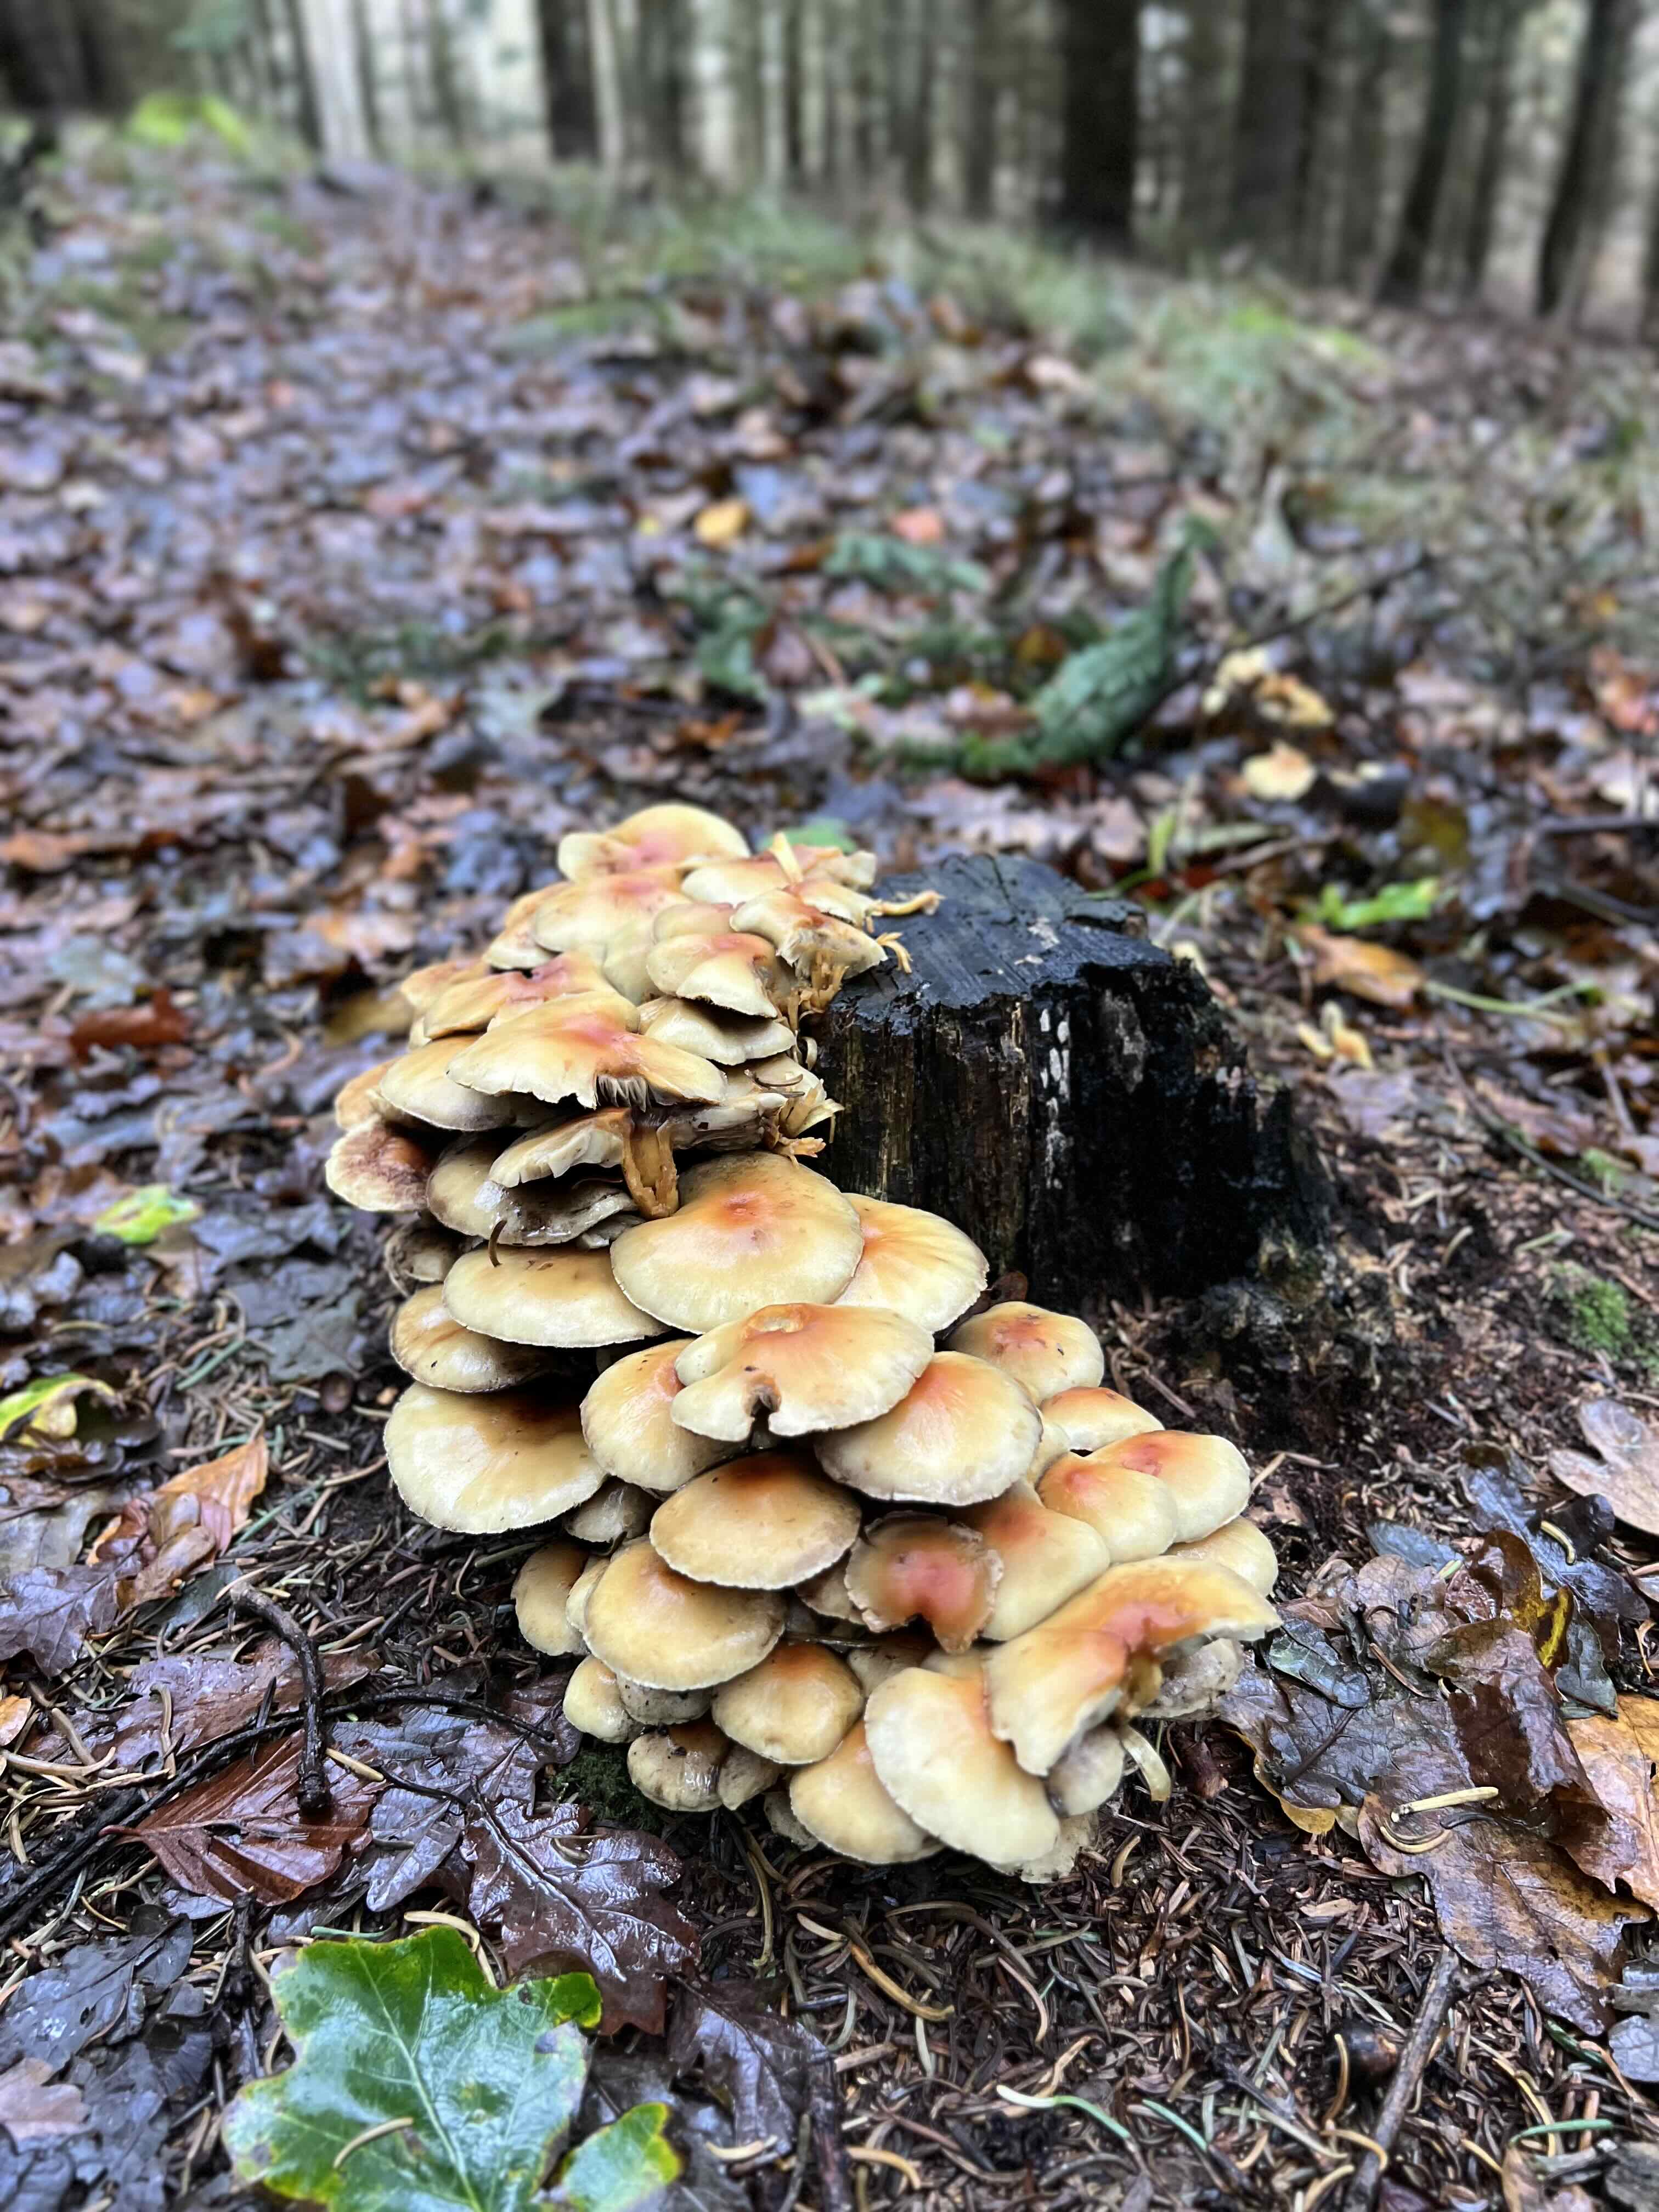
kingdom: Fungi
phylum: Basidiomycota
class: Agaricomycetes
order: Agaricales
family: Strophariaceae
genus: Hypholoma
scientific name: Hypholoma fasciculare
